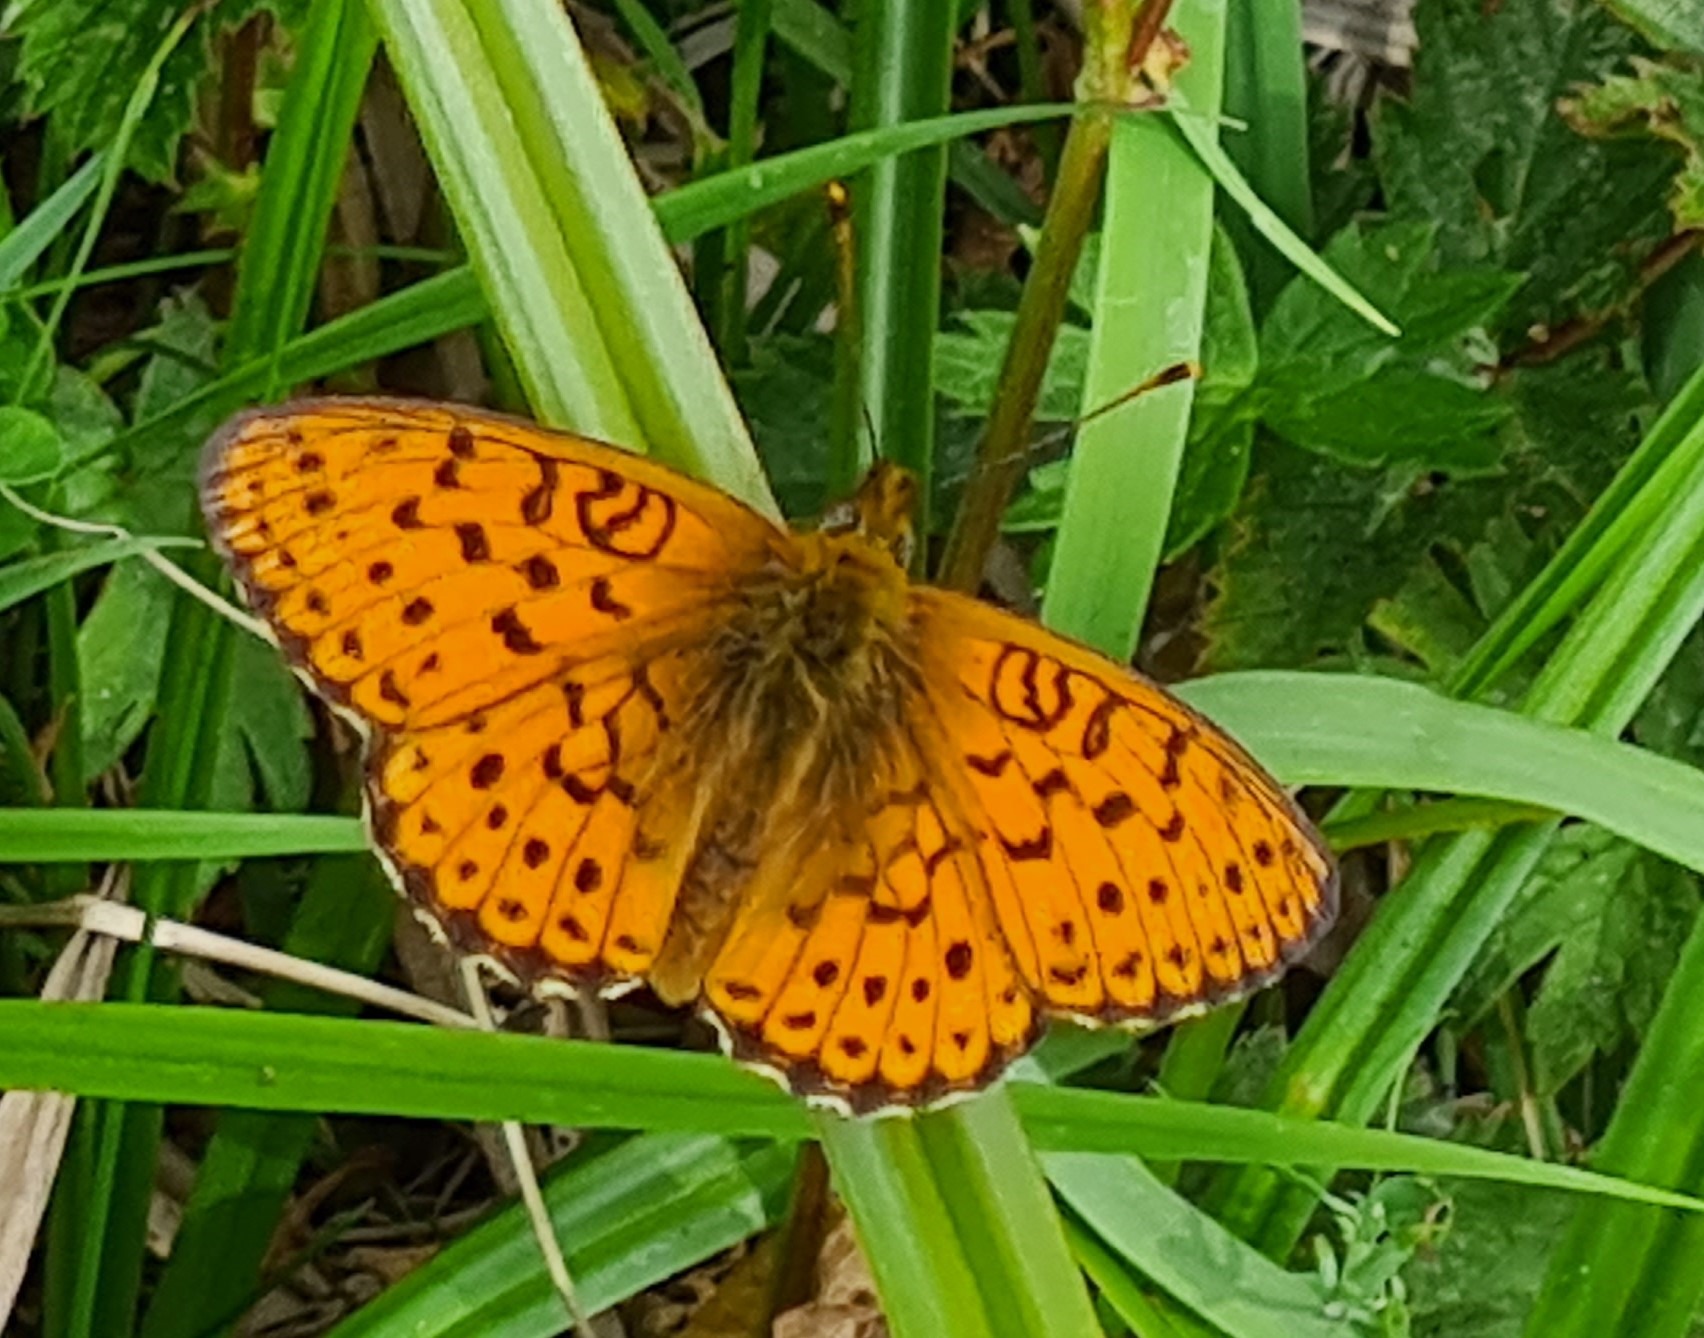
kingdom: Animalia
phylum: Arthropoda
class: Insecta
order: Lepidoptera
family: Nymphalidae
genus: Brenthis
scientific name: Brenthis ino
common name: Engperlemorsommerfugl
